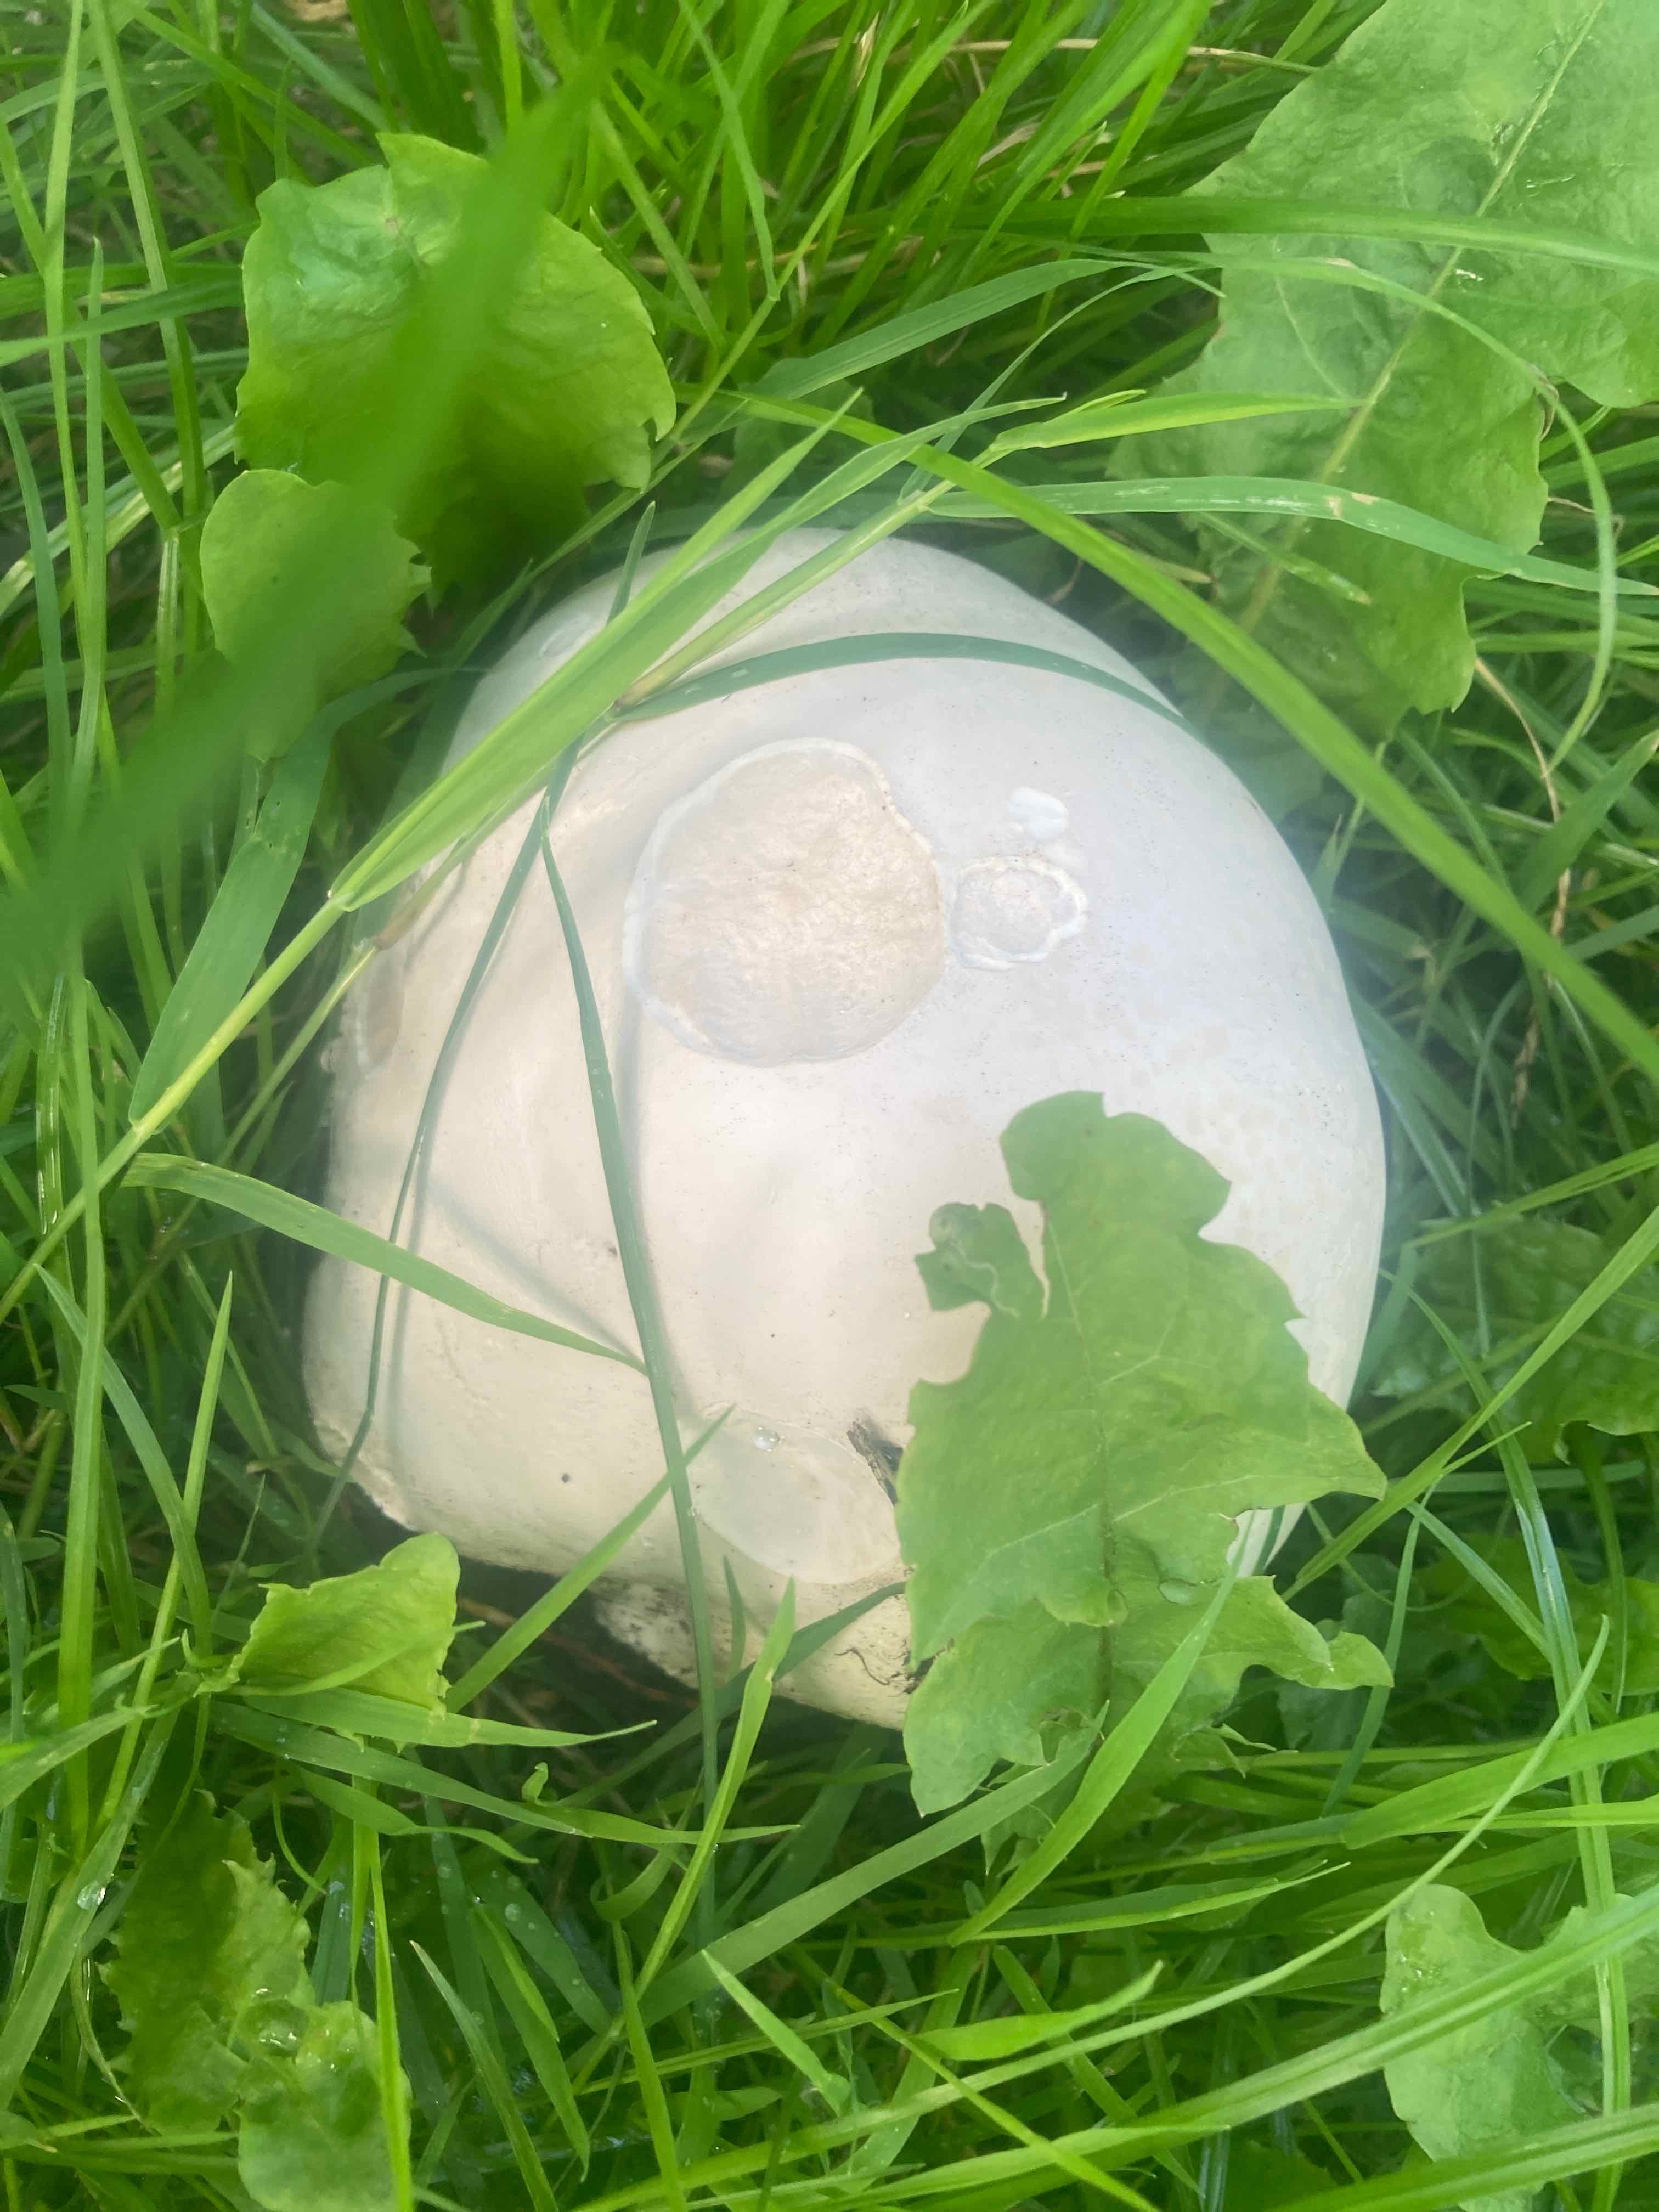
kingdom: Fungi
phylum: Basidiomycota
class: Agaricomycetes
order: Agaricales
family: Lycoperdaceae
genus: Calvatia
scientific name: Calvatia gigantea
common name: kæmpestøvbold
